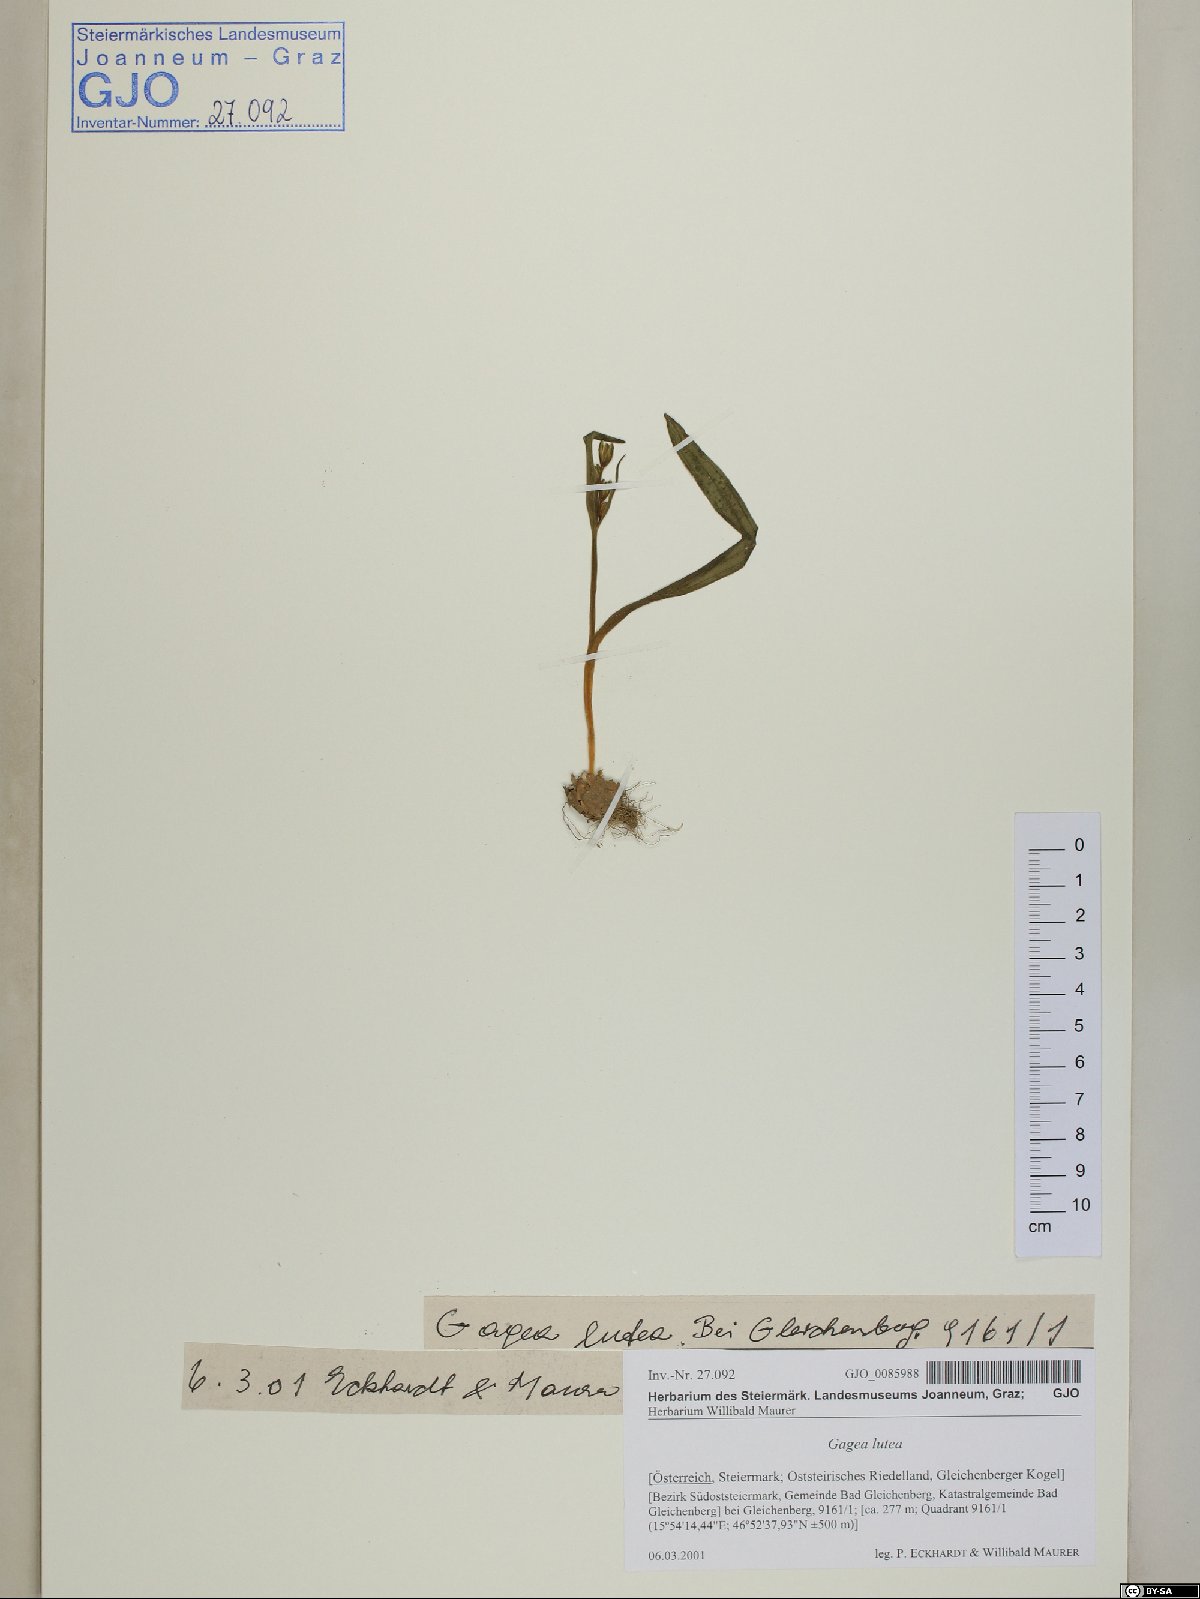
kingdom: Plantae
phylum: Tracheophyta
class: Liliopsida
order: Liliales
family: Liliaceae
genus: Gagea
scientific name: Gagea lutea
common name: Yellow star-of-bethlehem
